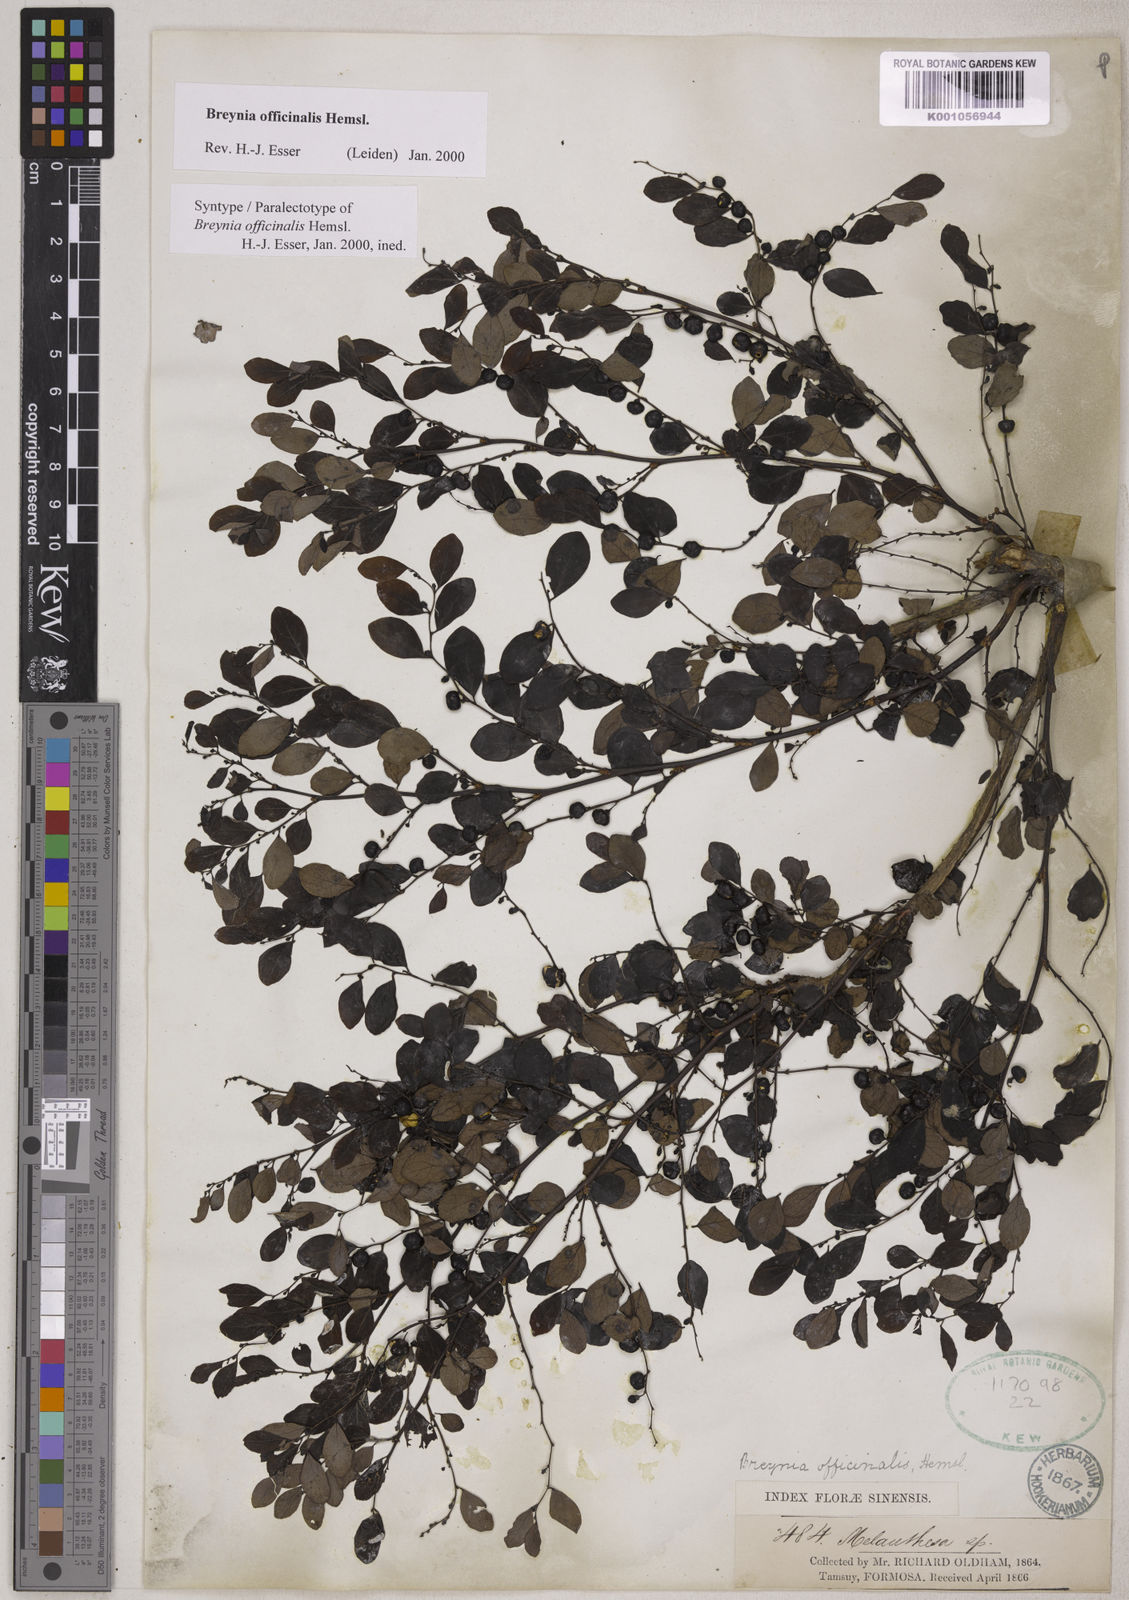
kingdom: Plantae
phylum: Tracheophyta
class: Magnoliopsida
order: Malpighiales
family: Phyllanthaceae
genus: Breynia
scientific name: Breynia vitis-idaea
